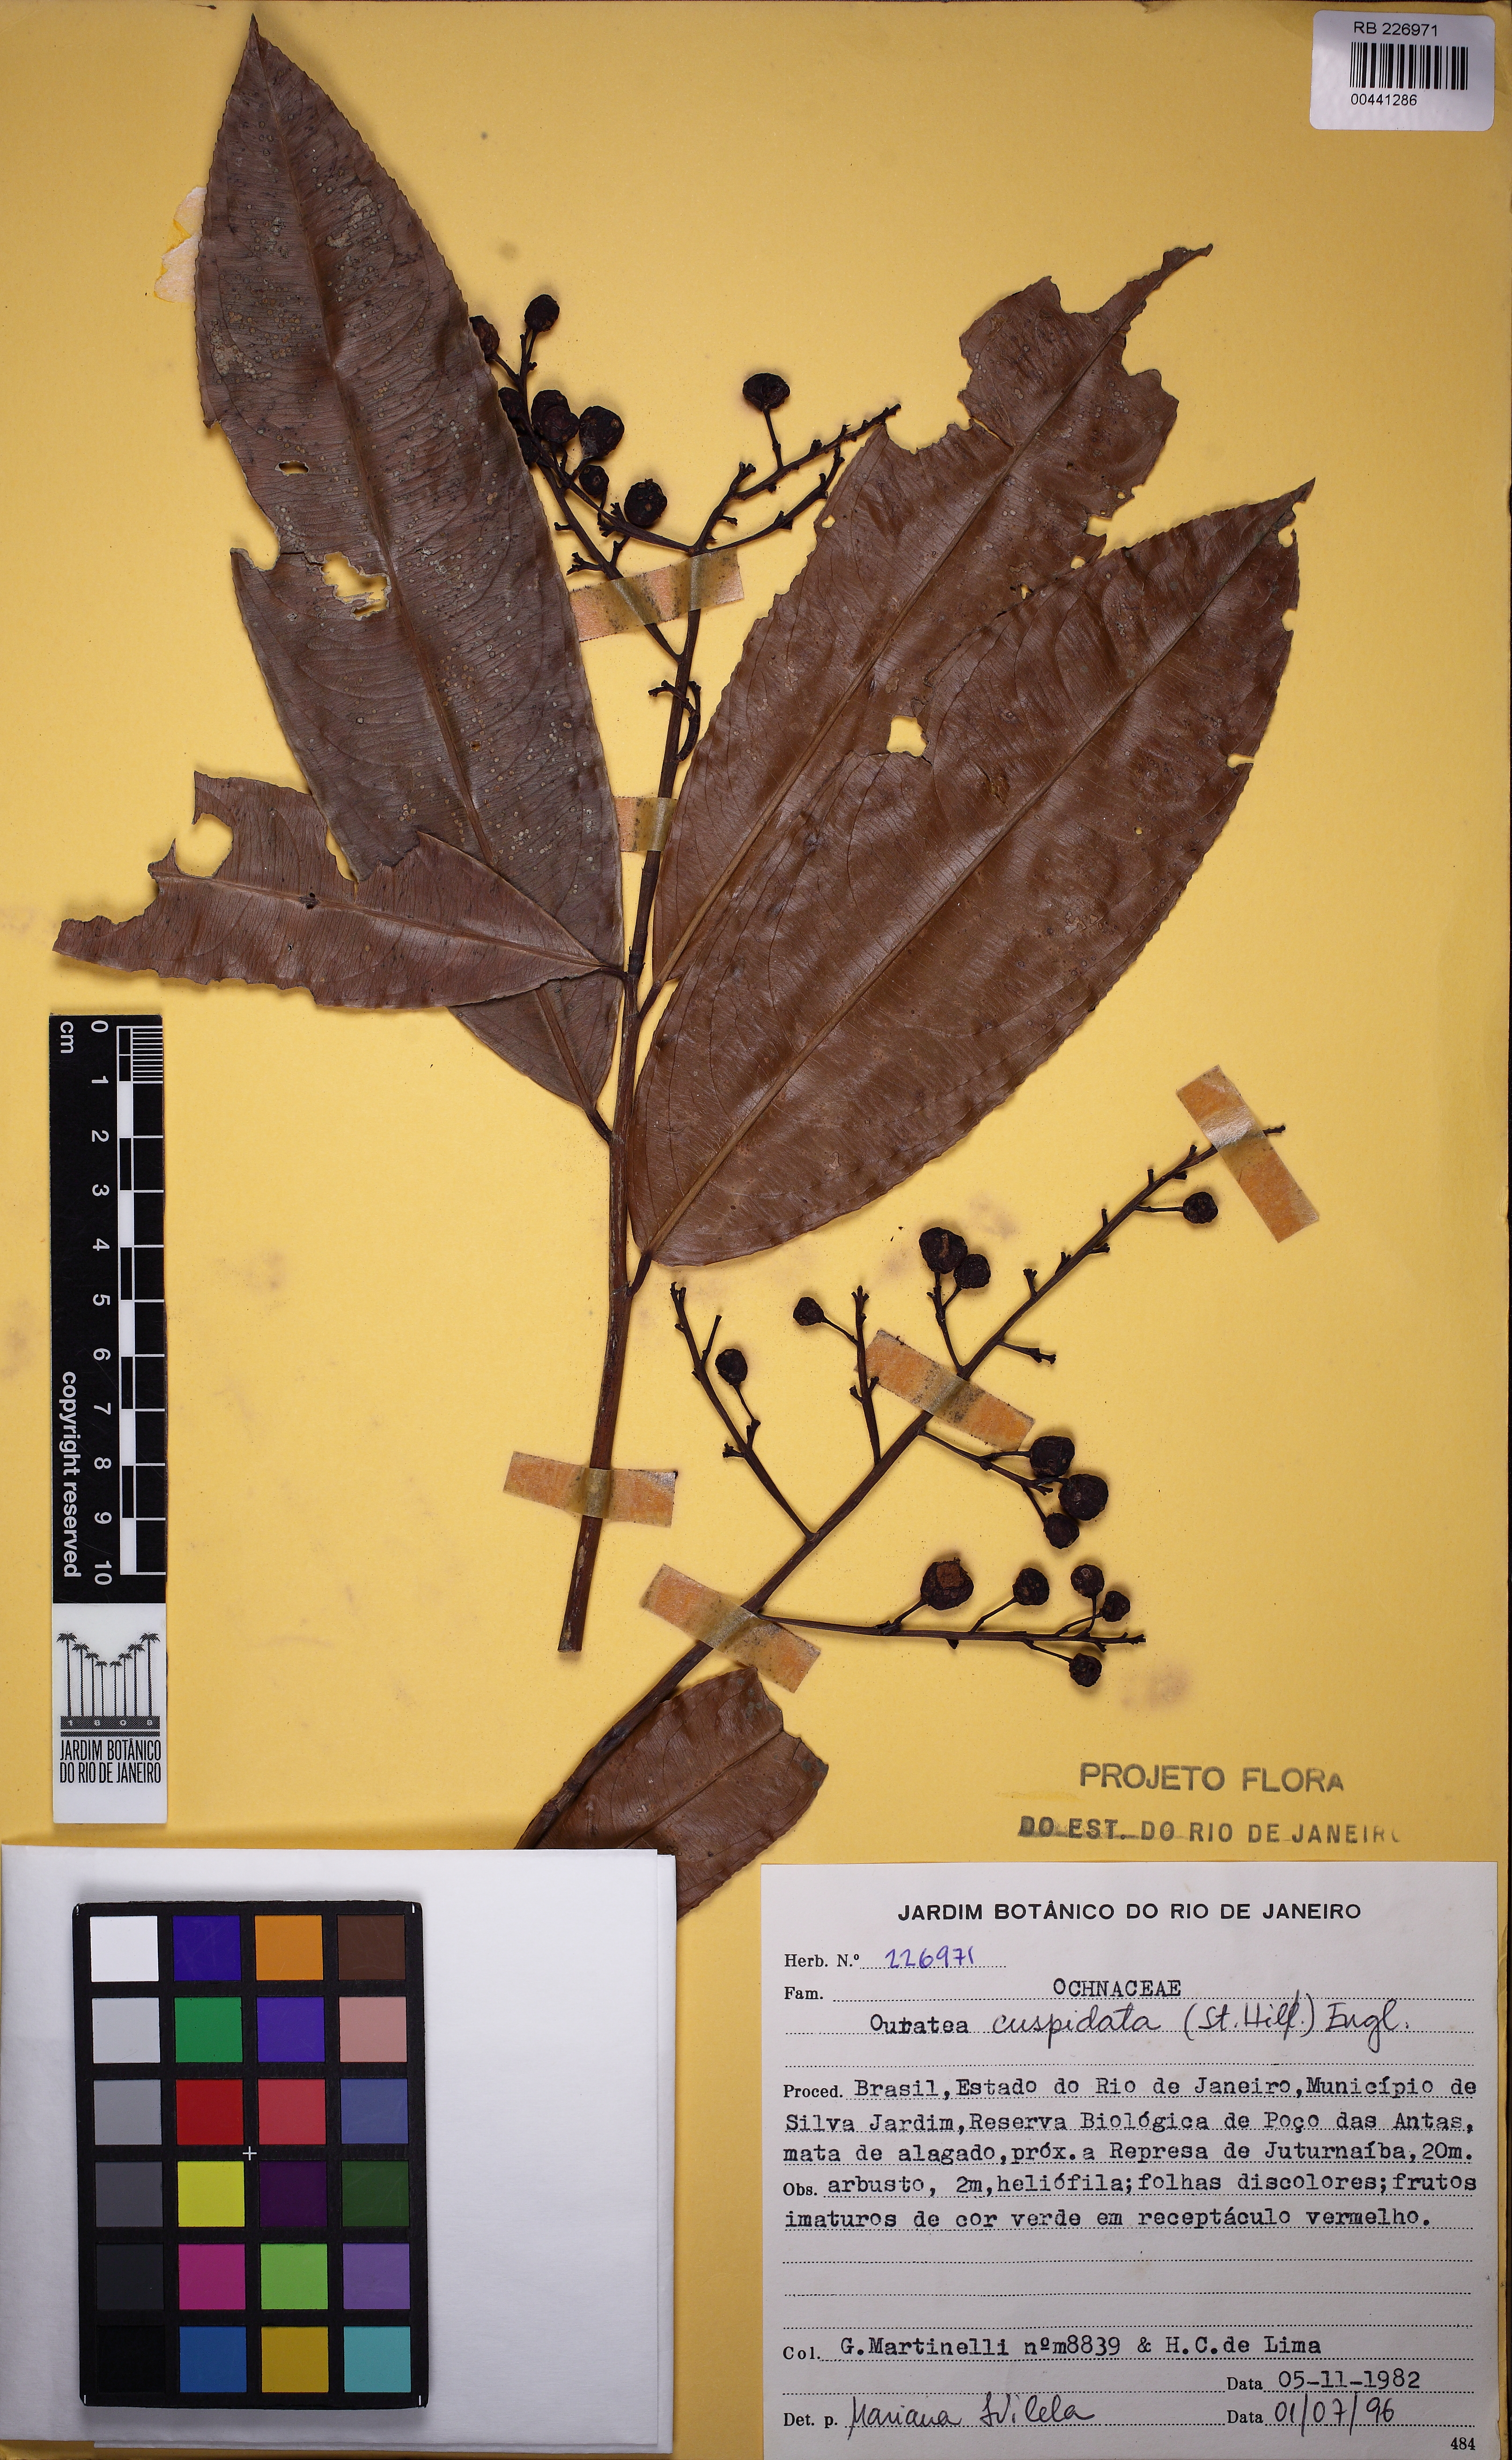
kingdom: Plantae
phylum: Tracheophyta
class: Magnoliopsida
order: Malpighiales
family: Ochnaceae
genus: Ouratea
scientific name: Ouratea cuspidata
